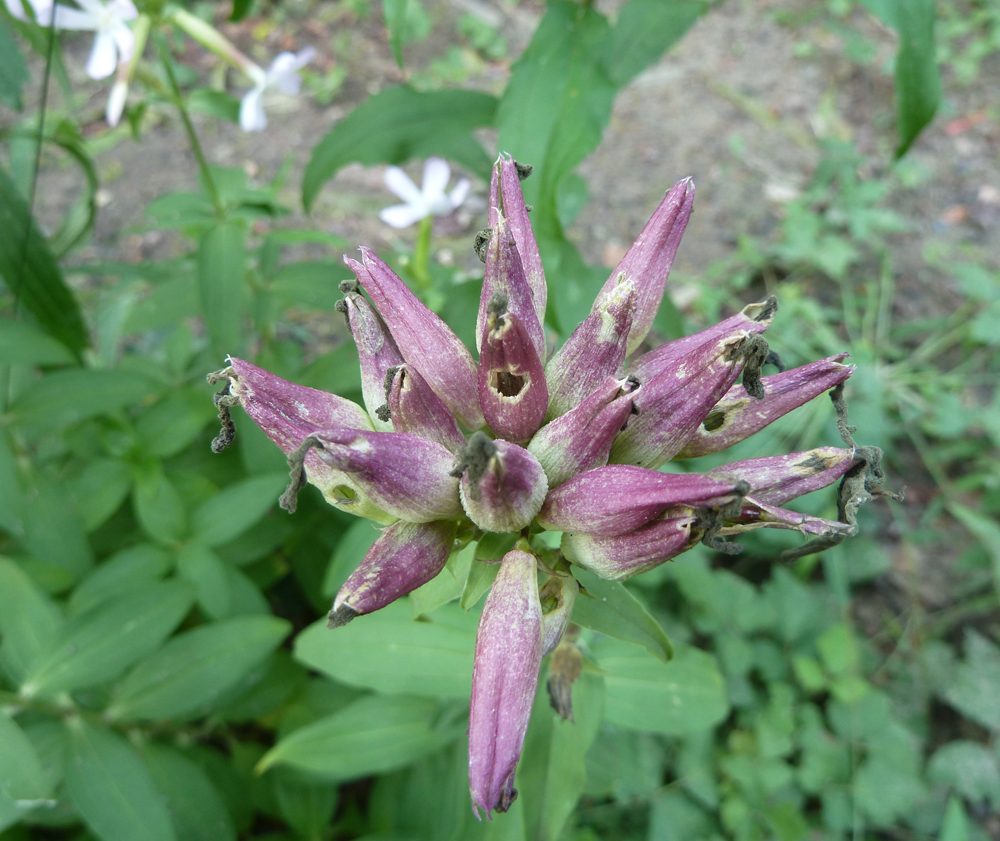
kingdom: Plantae
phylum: Tracheophyta
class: Magnoliopsida
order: Caryophyllales
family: Caryophyllaceae
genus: Saponaria
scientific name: Saponaria officinalis
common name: Soapwort
